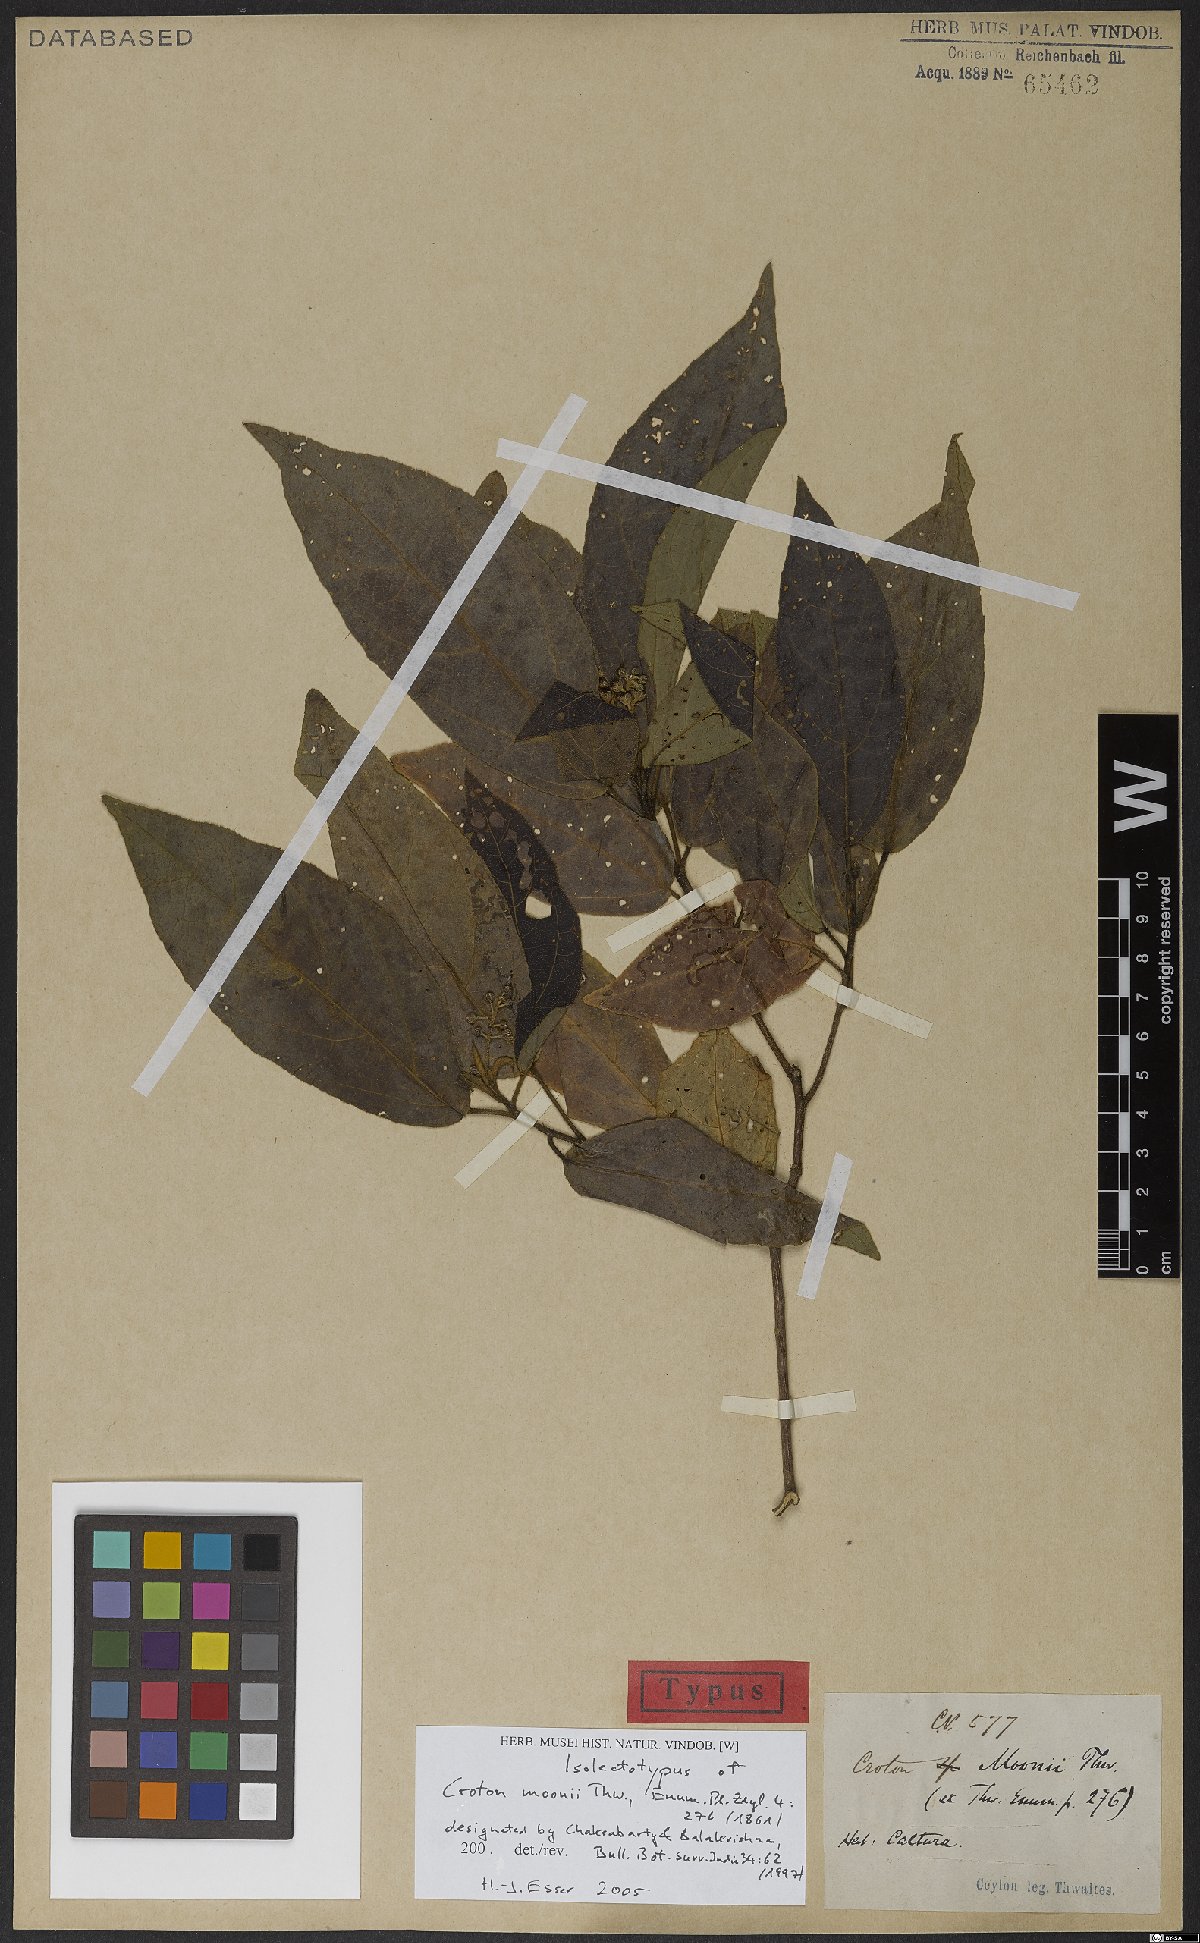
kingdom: Plantae
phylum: Tracheophyta
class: Magnoliopsida
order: Malpighiales
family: Euphorbiaceae
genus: Croton
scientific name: Croton moonii
